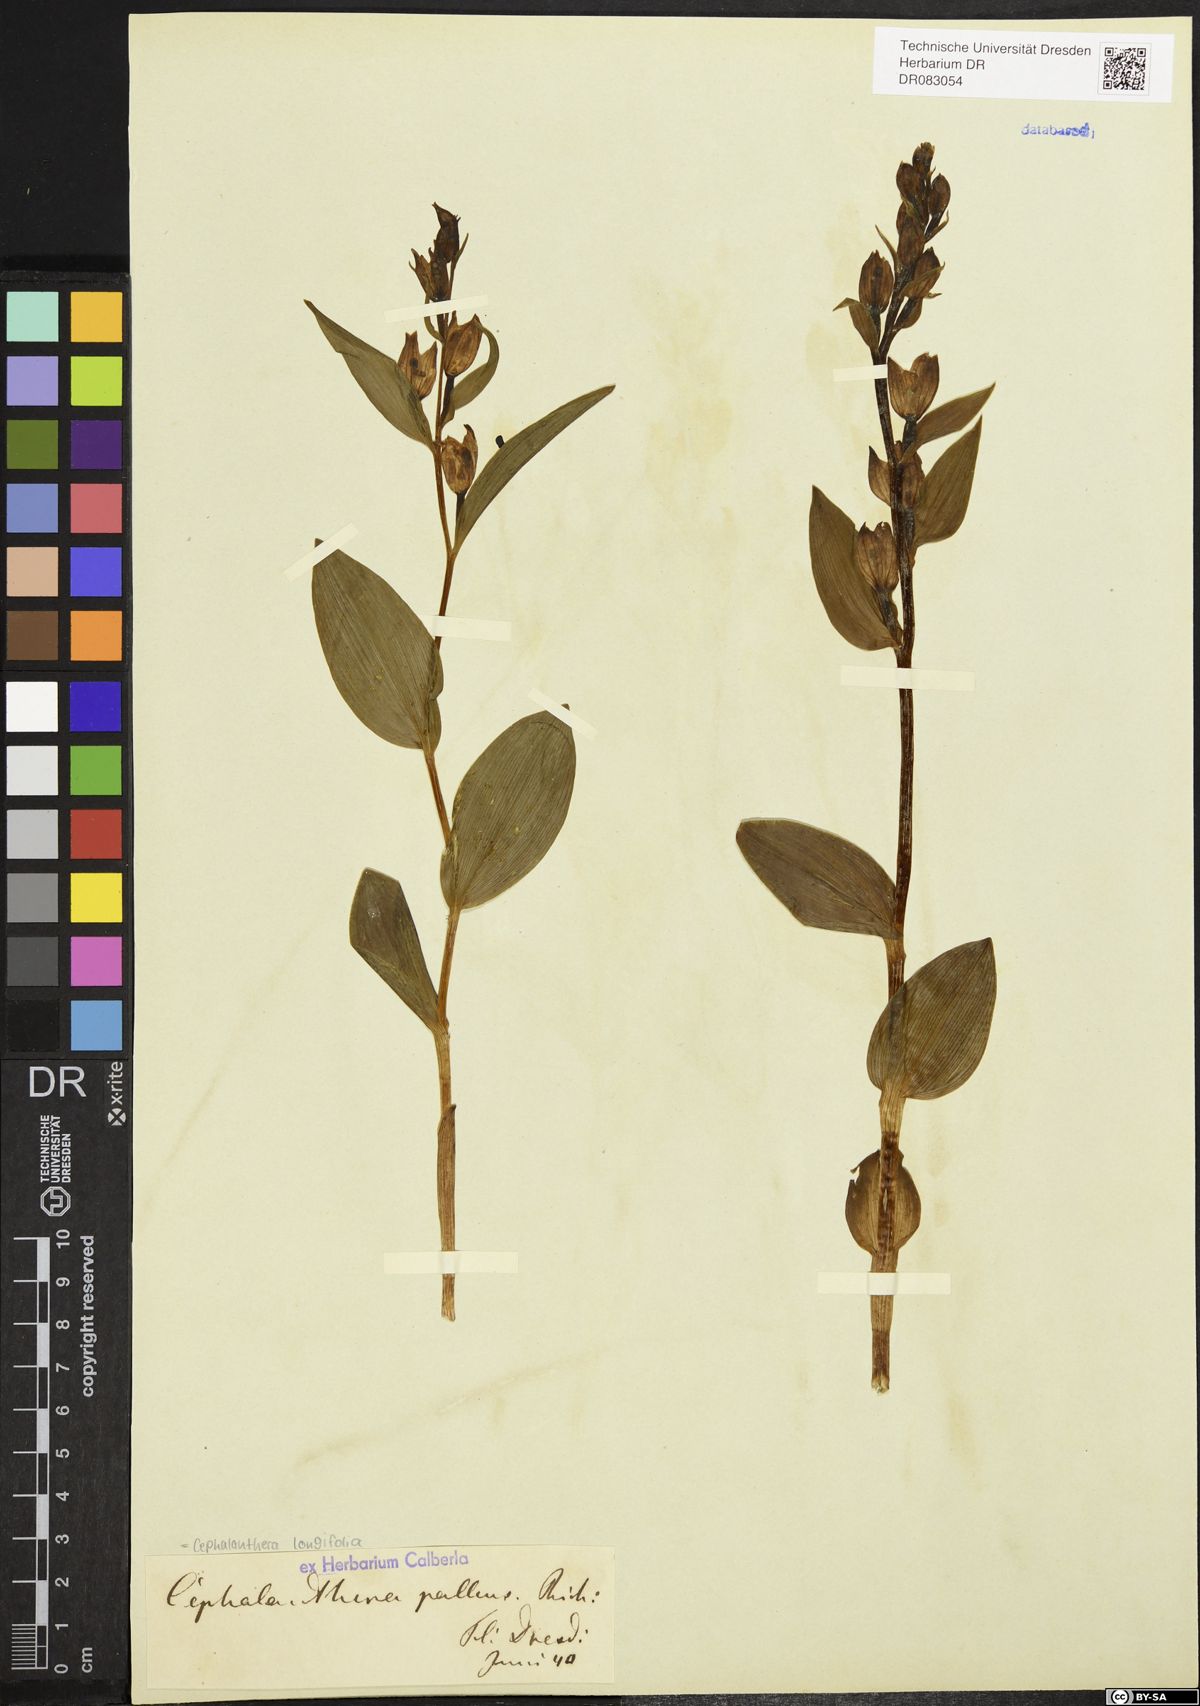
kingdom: Plantae
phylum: Tracheophyta
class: Liliopsida
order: Asparagales
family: Orchidaceae
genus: Cephalanthera
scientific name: Cephalanthera longifolia
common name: Narrow-leaved helleborine
